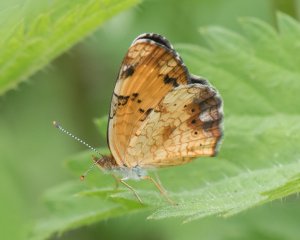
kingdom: Animalia
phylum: Arthropoda
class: Insecta
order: Lepidoptera
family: Nymphalidae
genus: Phyciodes
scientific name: Phyciodes tharos
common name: Northern Crescent
